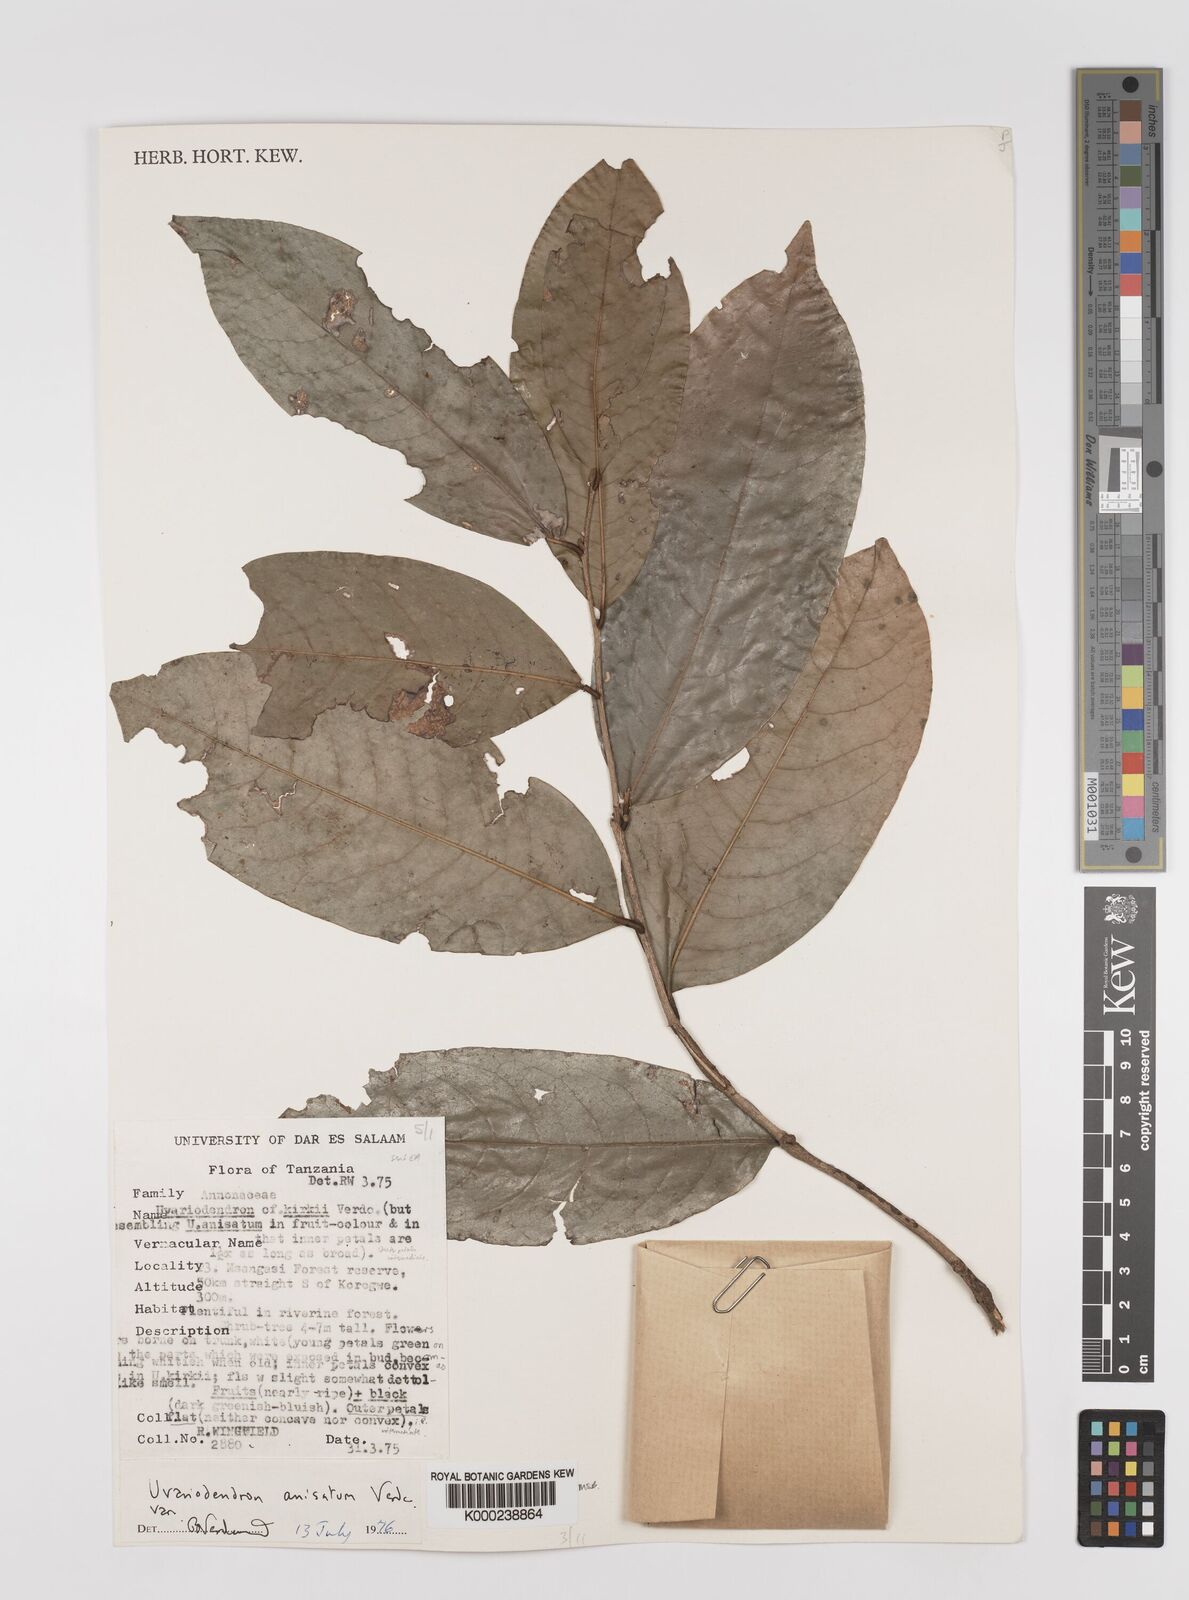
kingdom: Plantae
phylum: Tracheophyta
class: Magnoliopsida
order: Magnoliales
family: Annonaceae
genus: Uvariodendron
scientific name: Uvariodendron anisatum
